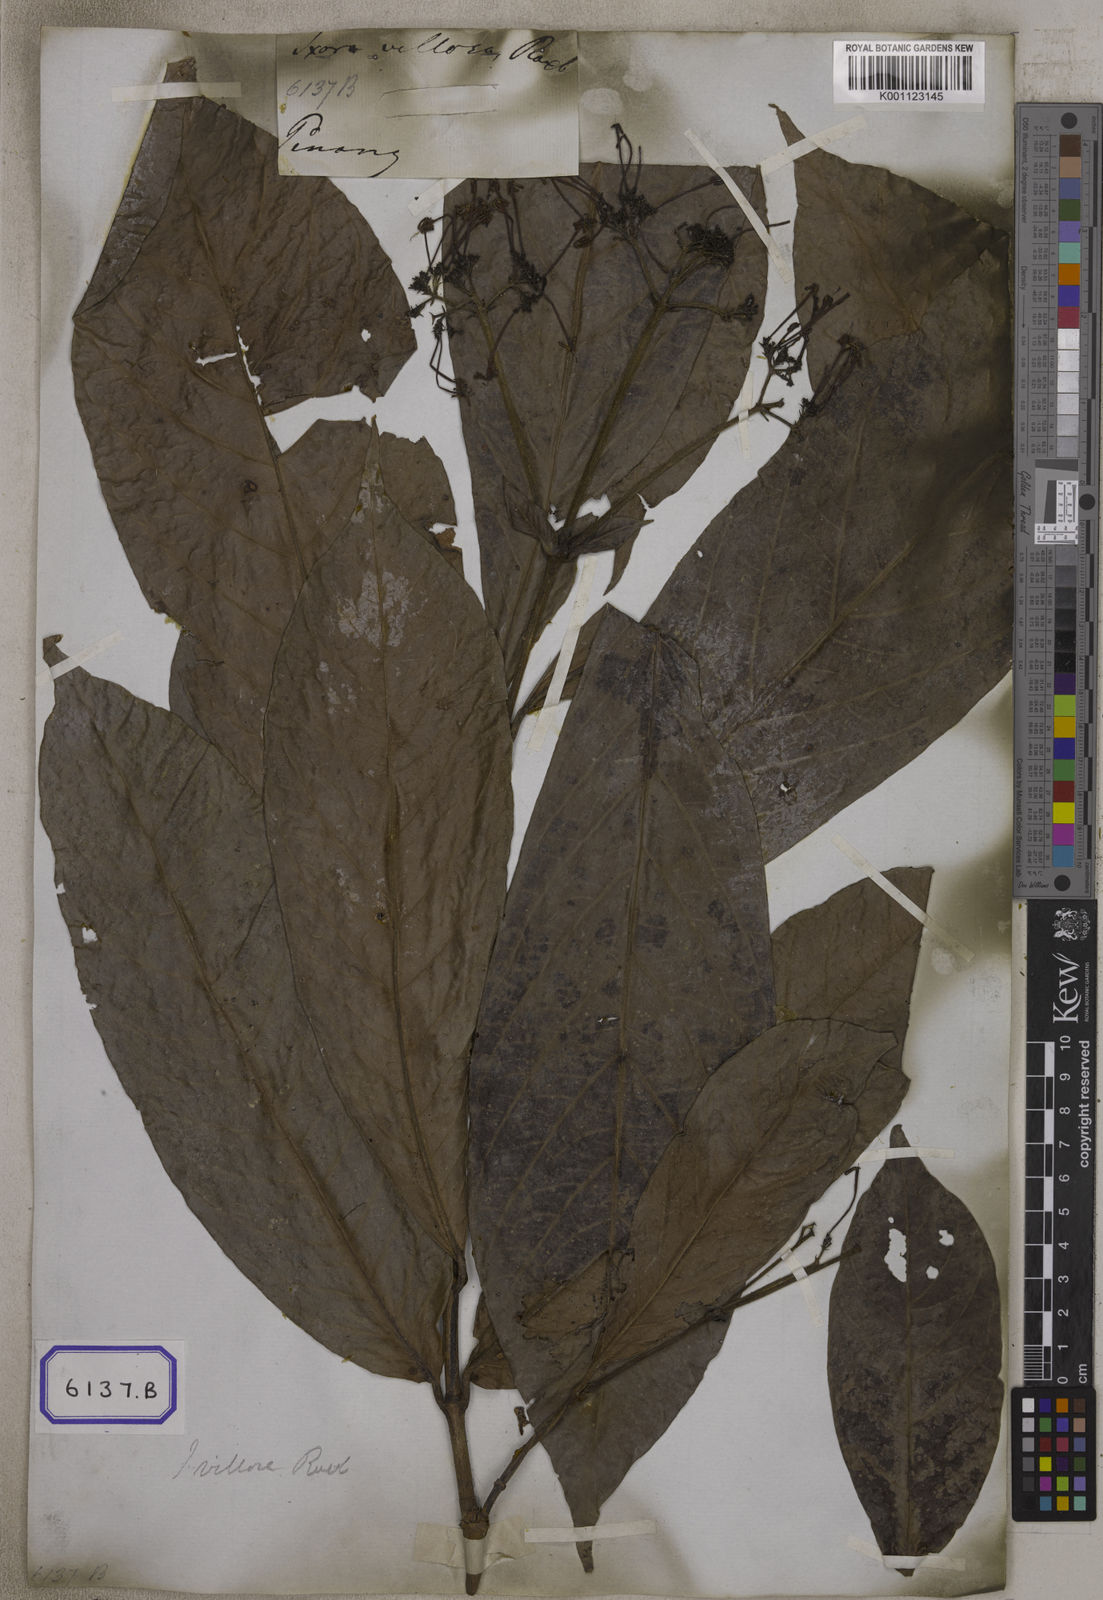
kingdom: Plantae
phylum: Tracheophyta
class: Magnoliopsida
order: Gentianales
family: Rubiaceae
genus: Ixora
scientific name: Ixora roxburghii
